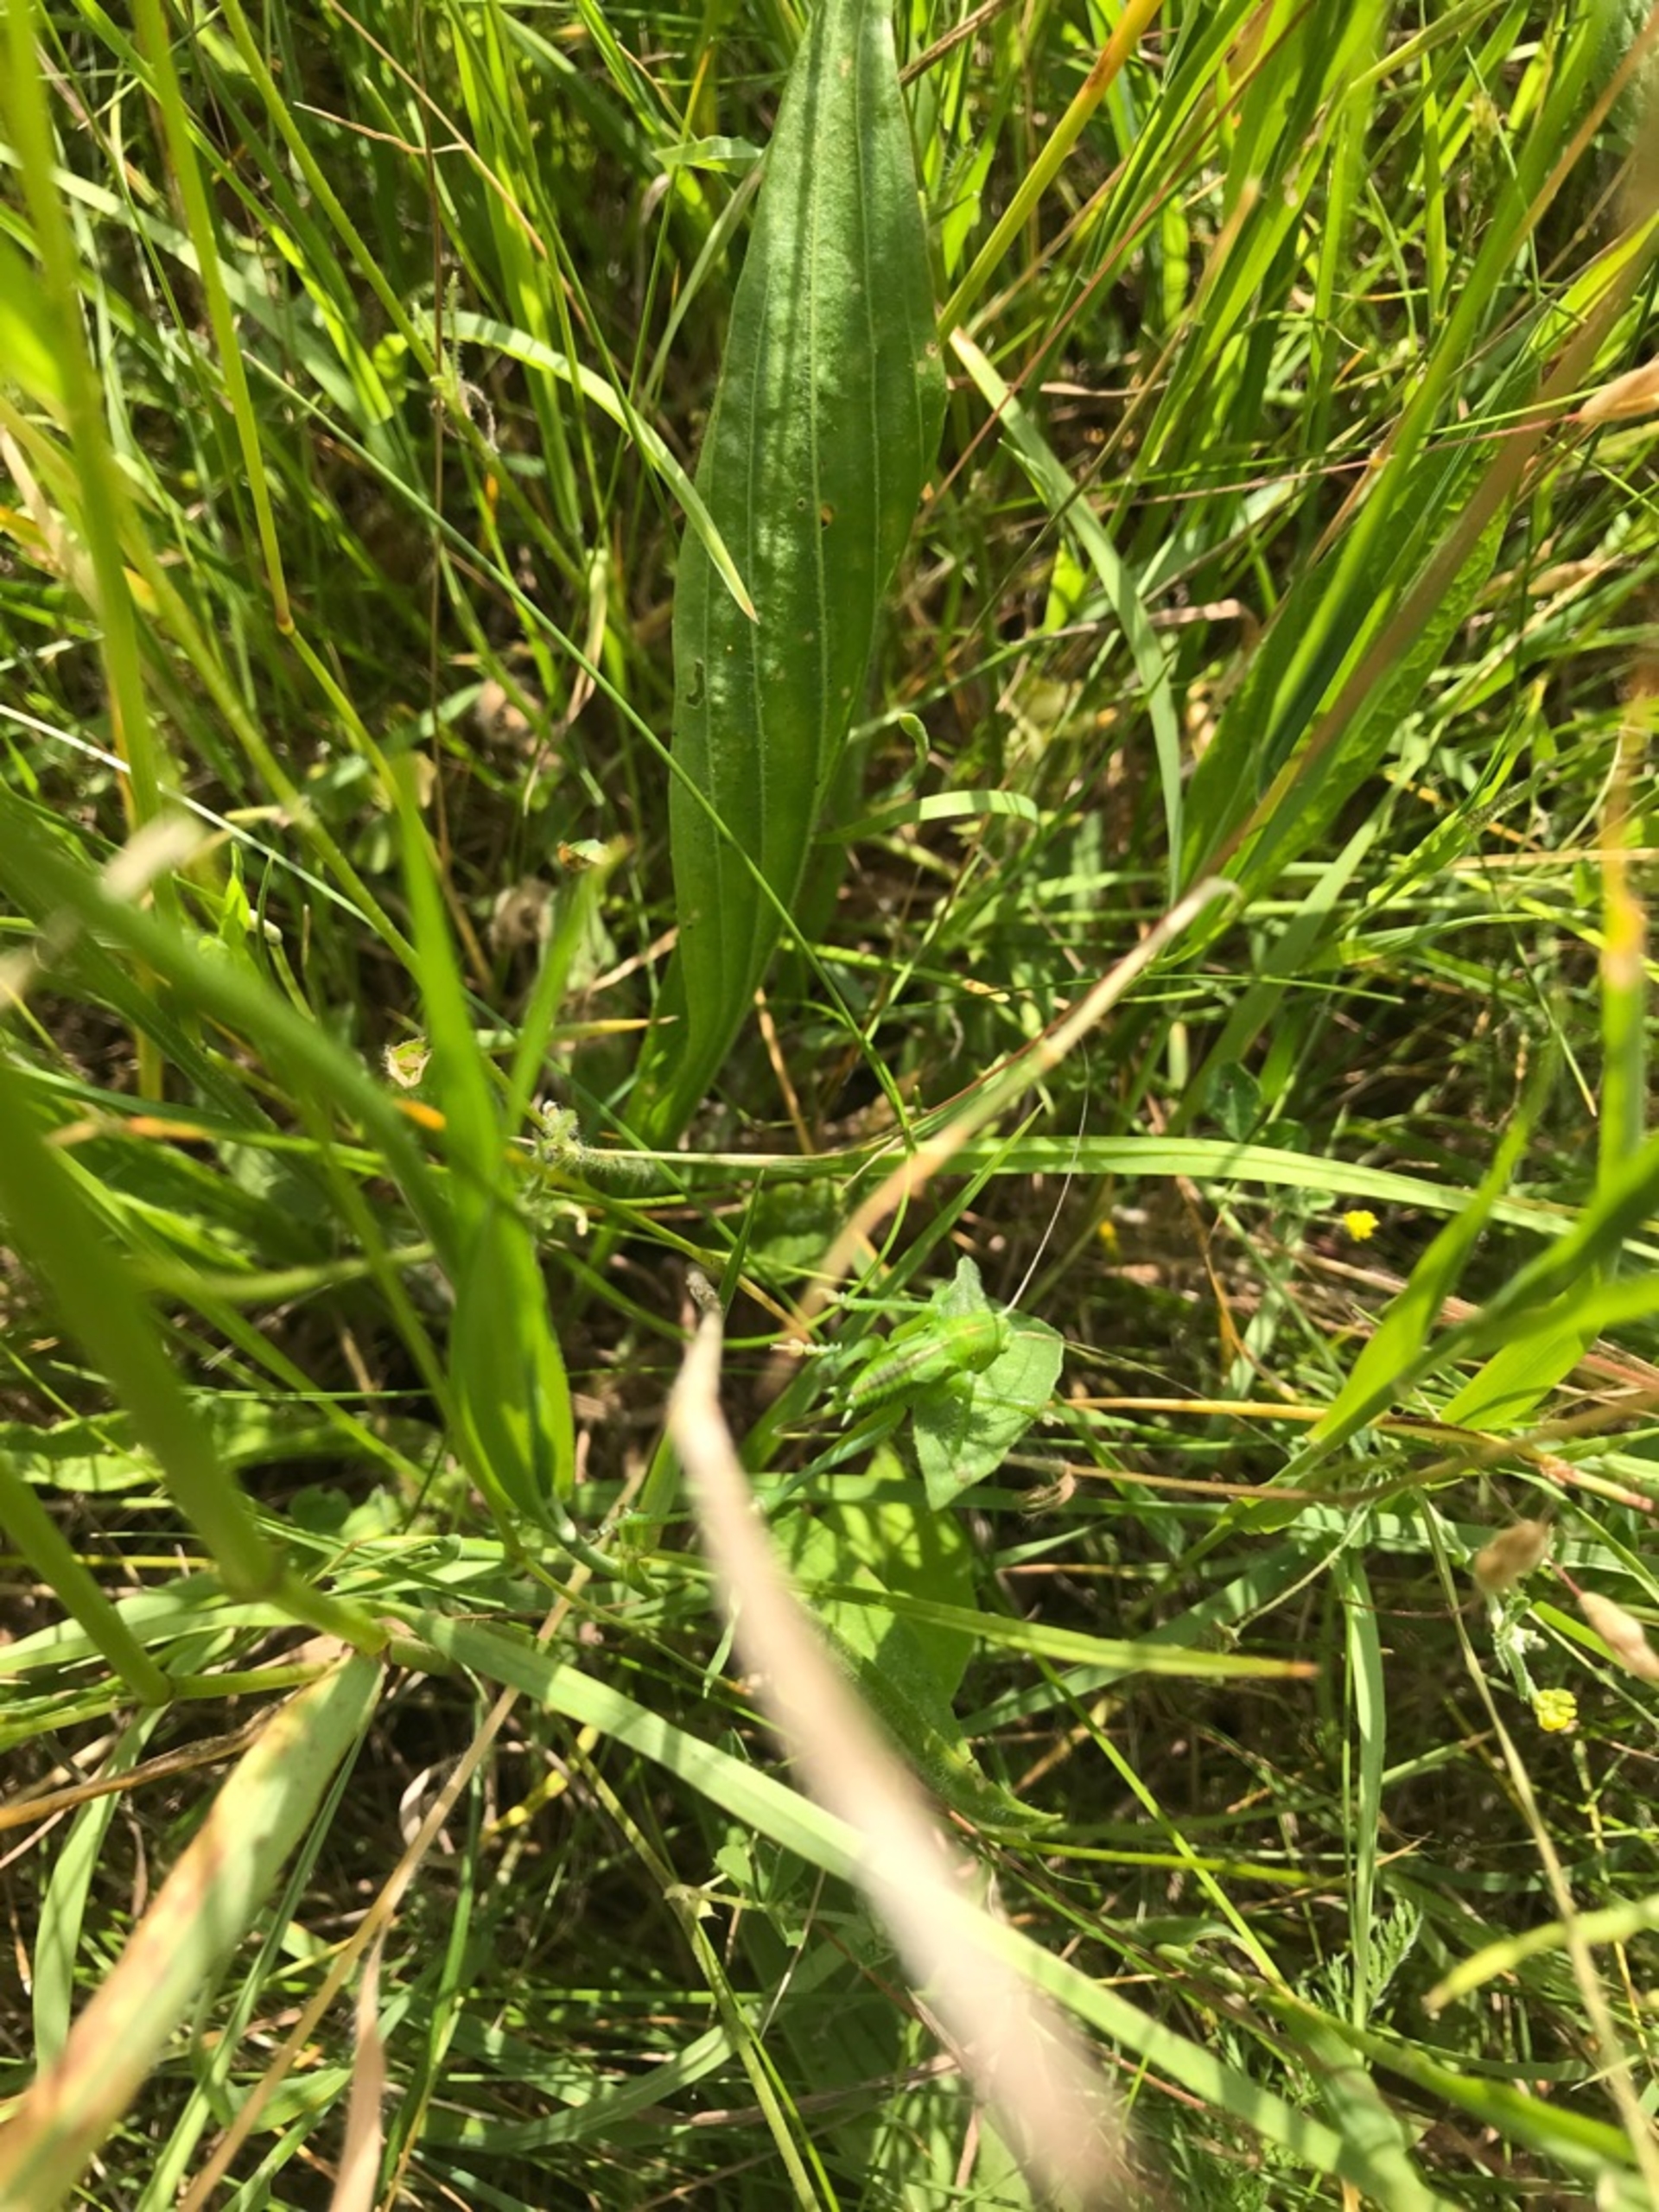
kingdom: Animalia
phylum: Arthropoda
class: Insecta
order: Orthoptera
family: Tettigoniidae
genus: Tettigonia
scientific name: Tettigonia viridissima
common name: Stor grøn løvgræshoppe
